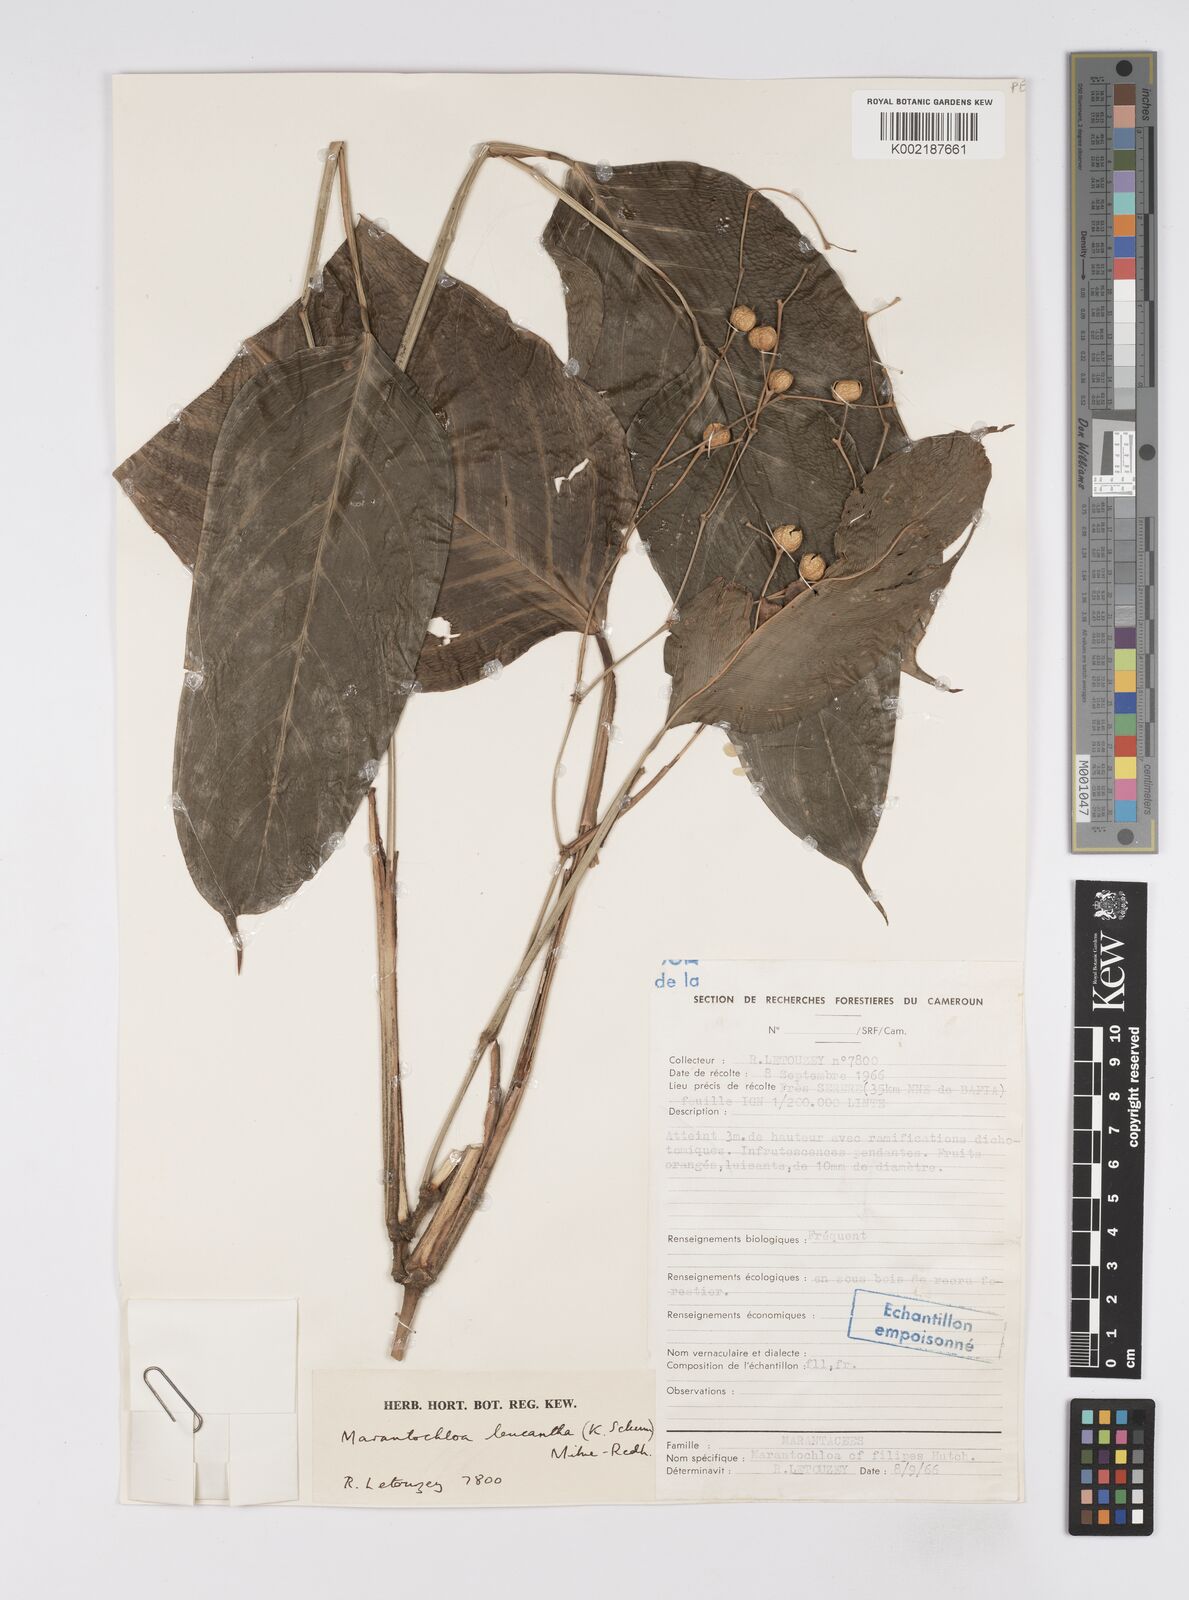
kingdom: Plantae
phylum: Tracheophyta
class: Liliopsida
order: Zingiberales
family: Marantaceae
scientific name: Marantaceae
